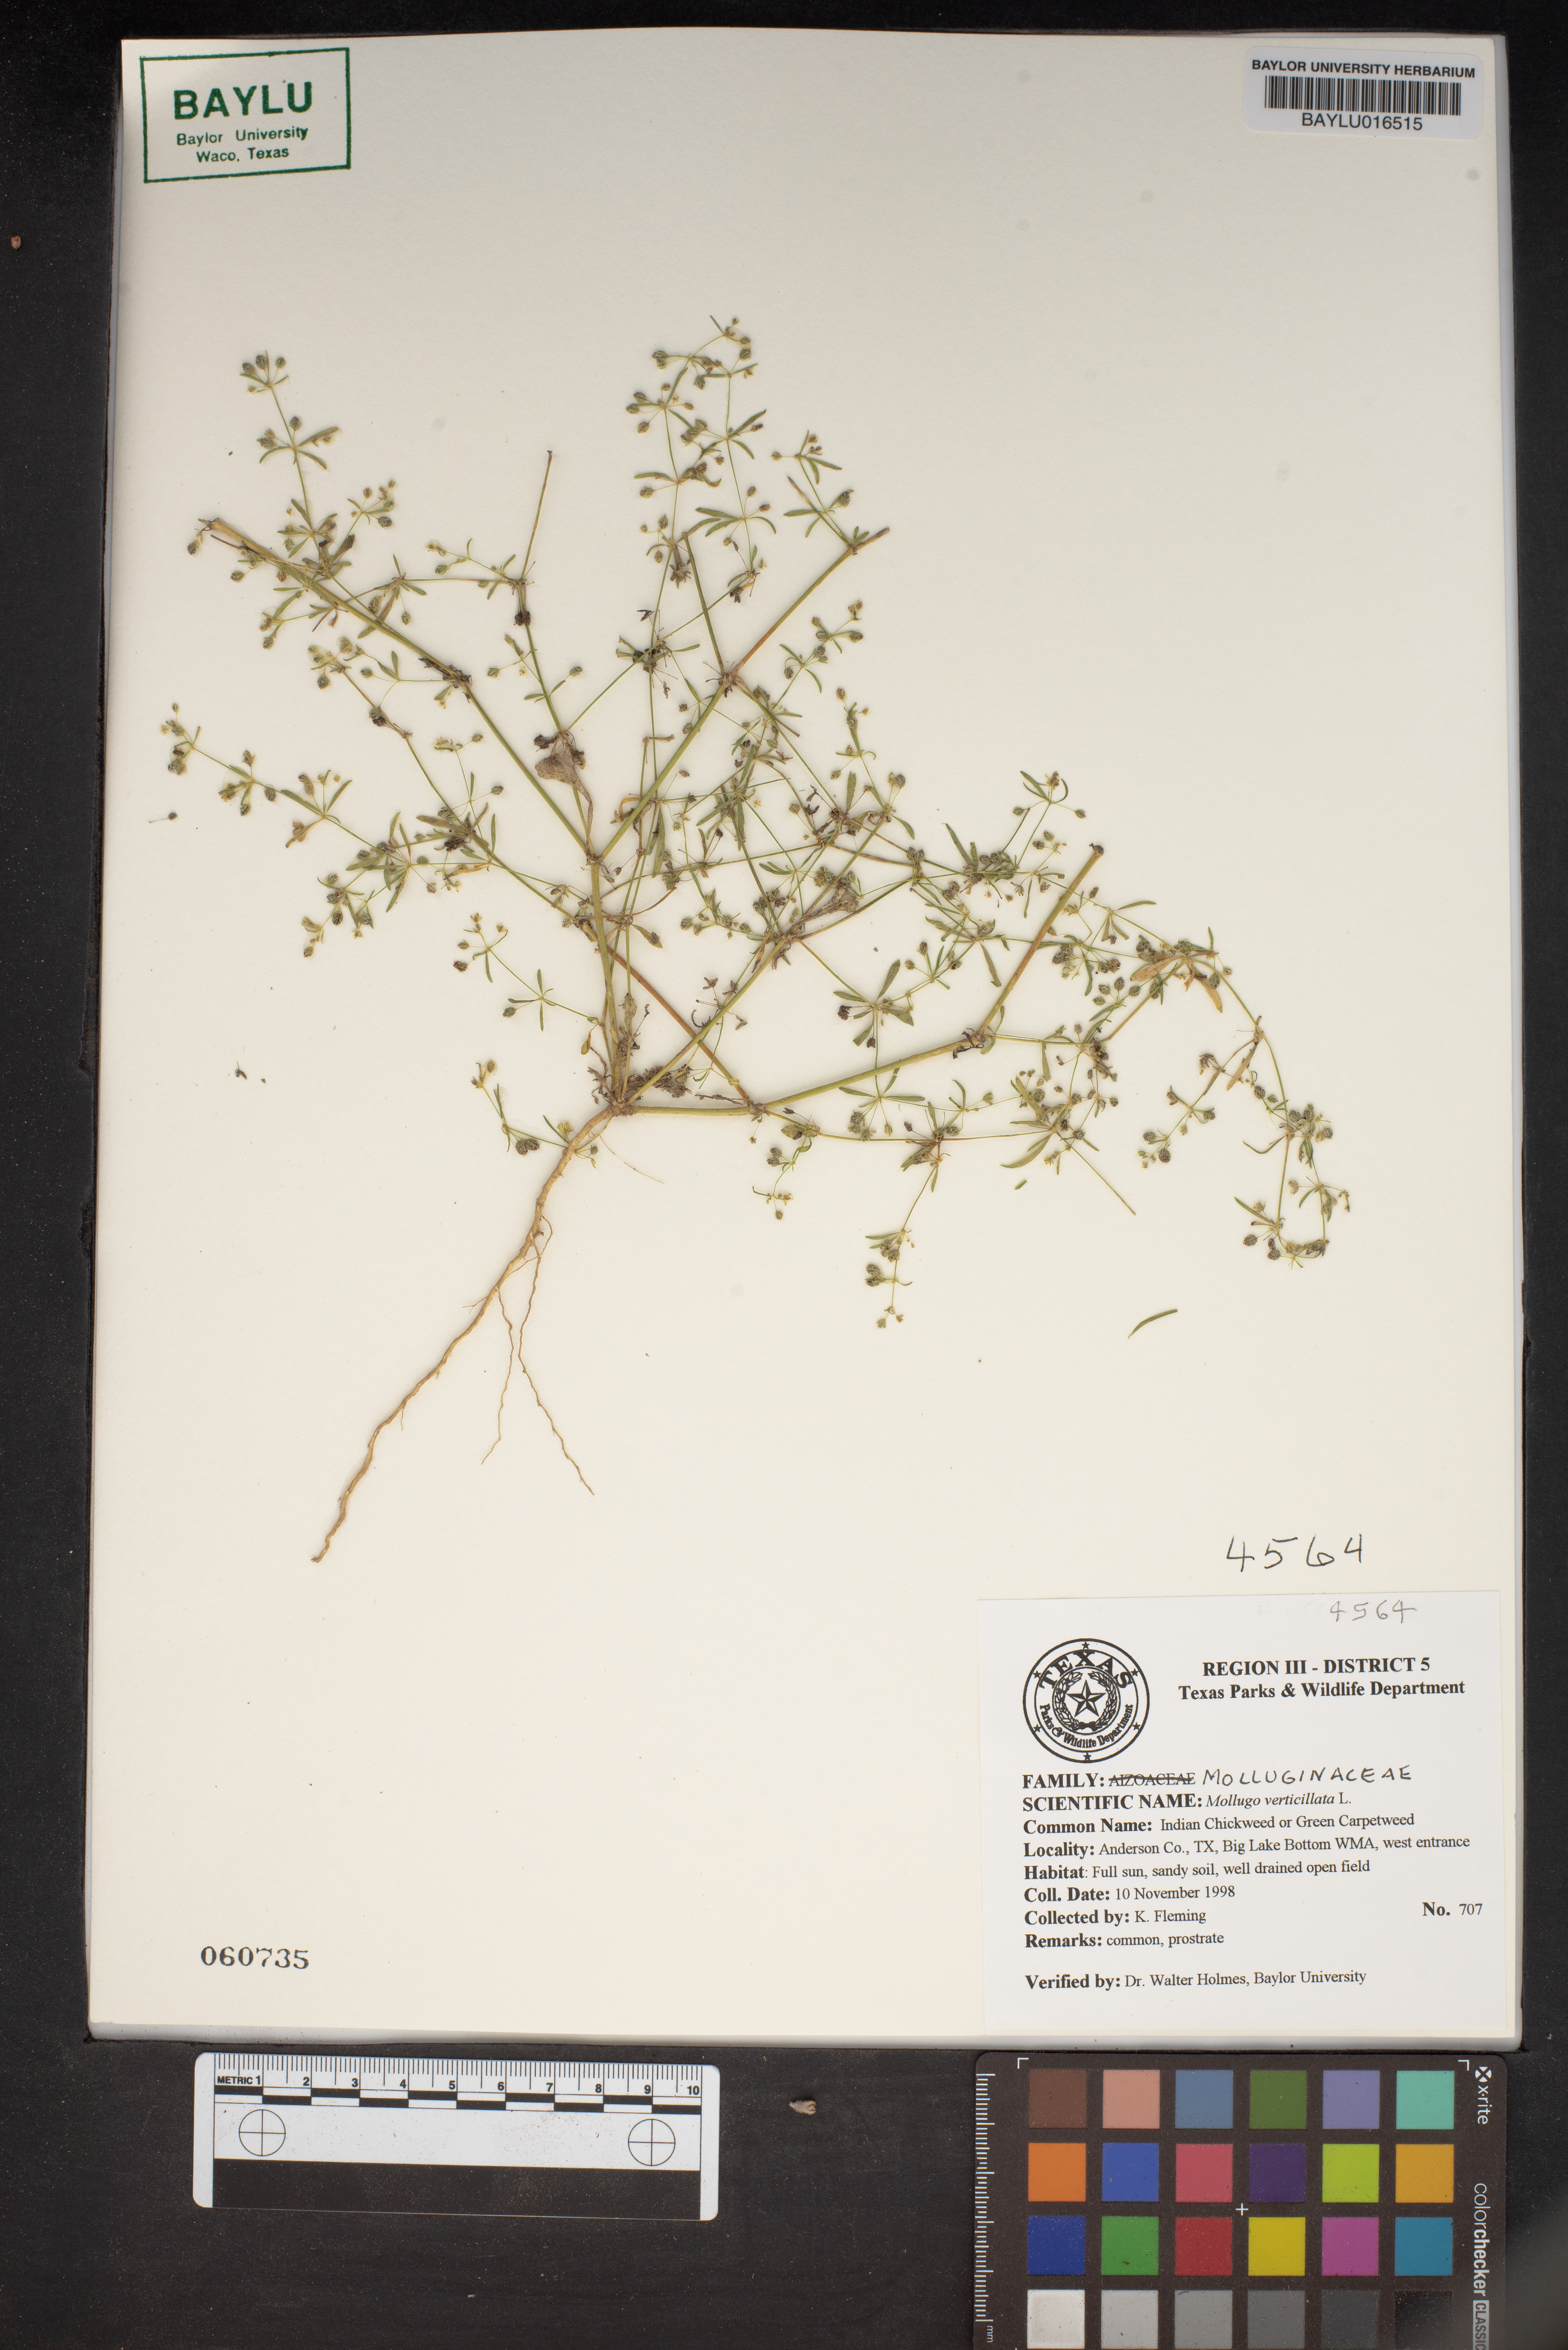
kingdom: Plantae
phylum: Tracheophyta
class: Magnoliopsida
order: Caryophyllales
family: Molluginaceae
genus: Mollugo
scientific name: Mollugo verticillata
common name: Green carpetweed
